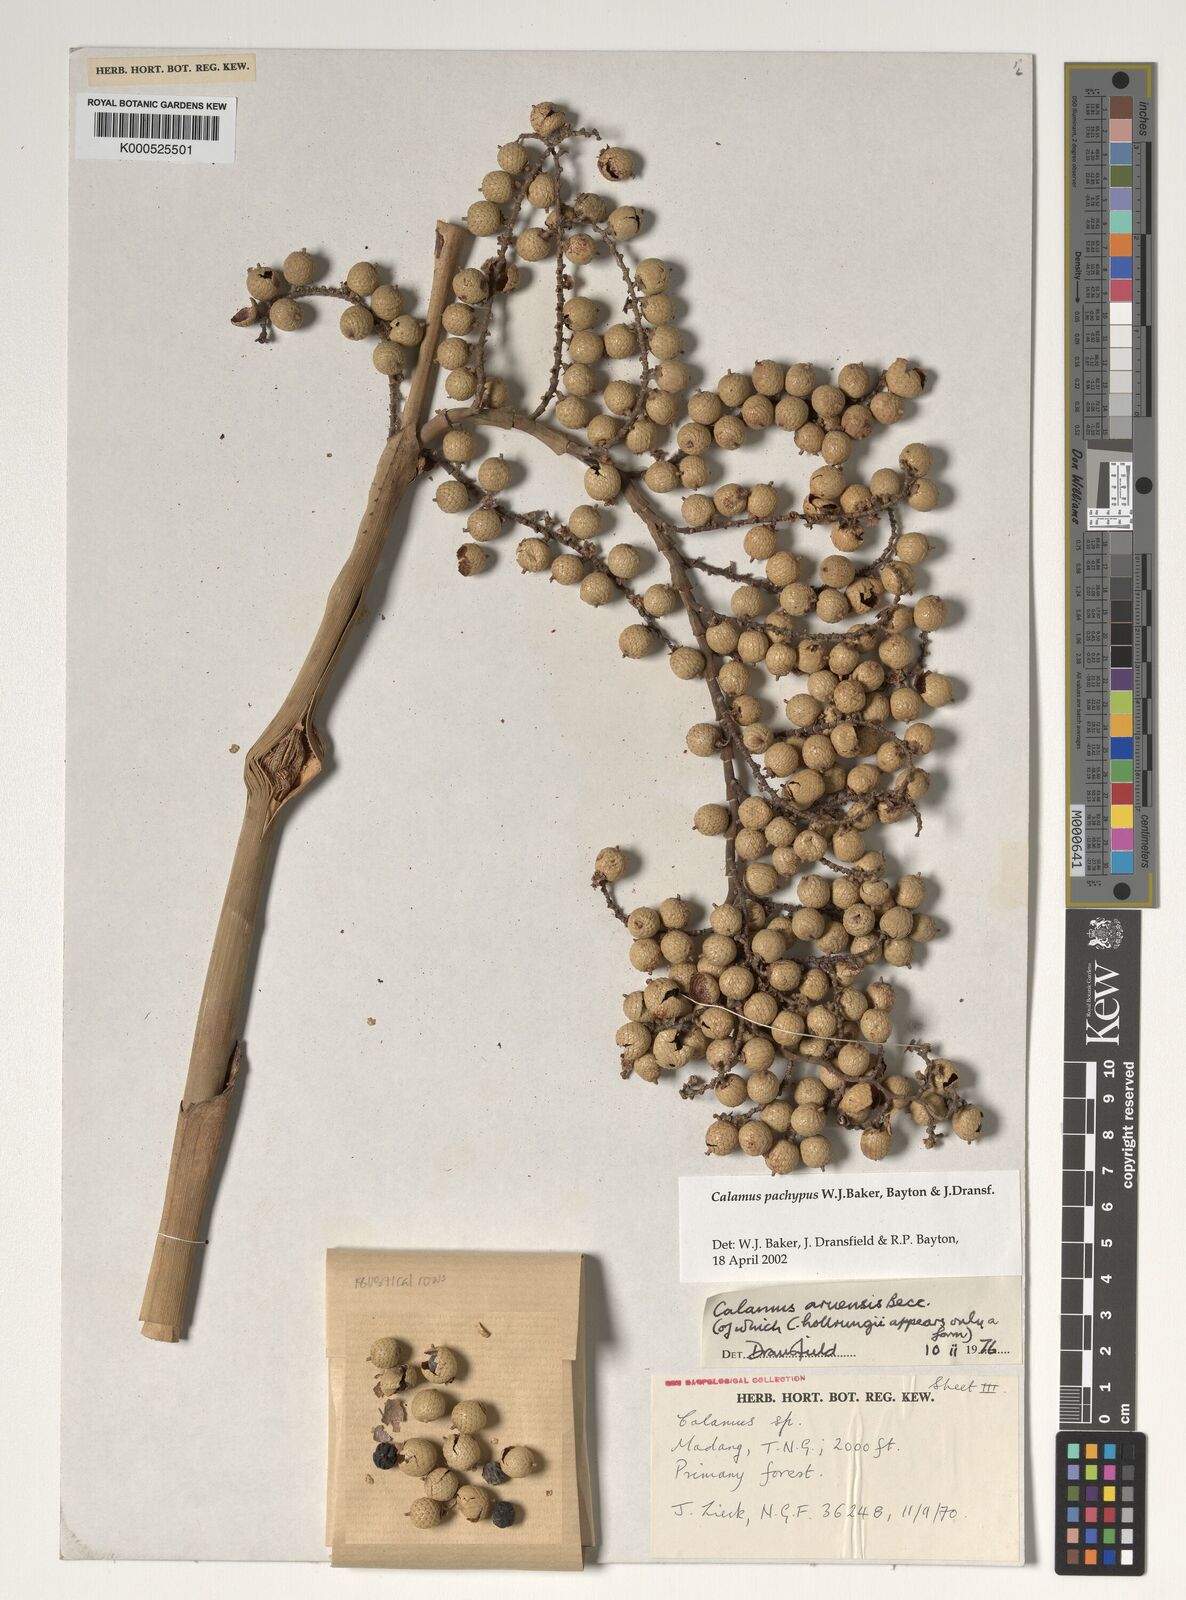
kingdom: Plantae
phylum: Tracheophyta
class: Liliopsida
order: Arecales
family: Arecaceae
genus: Calamus
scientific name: Calamus
